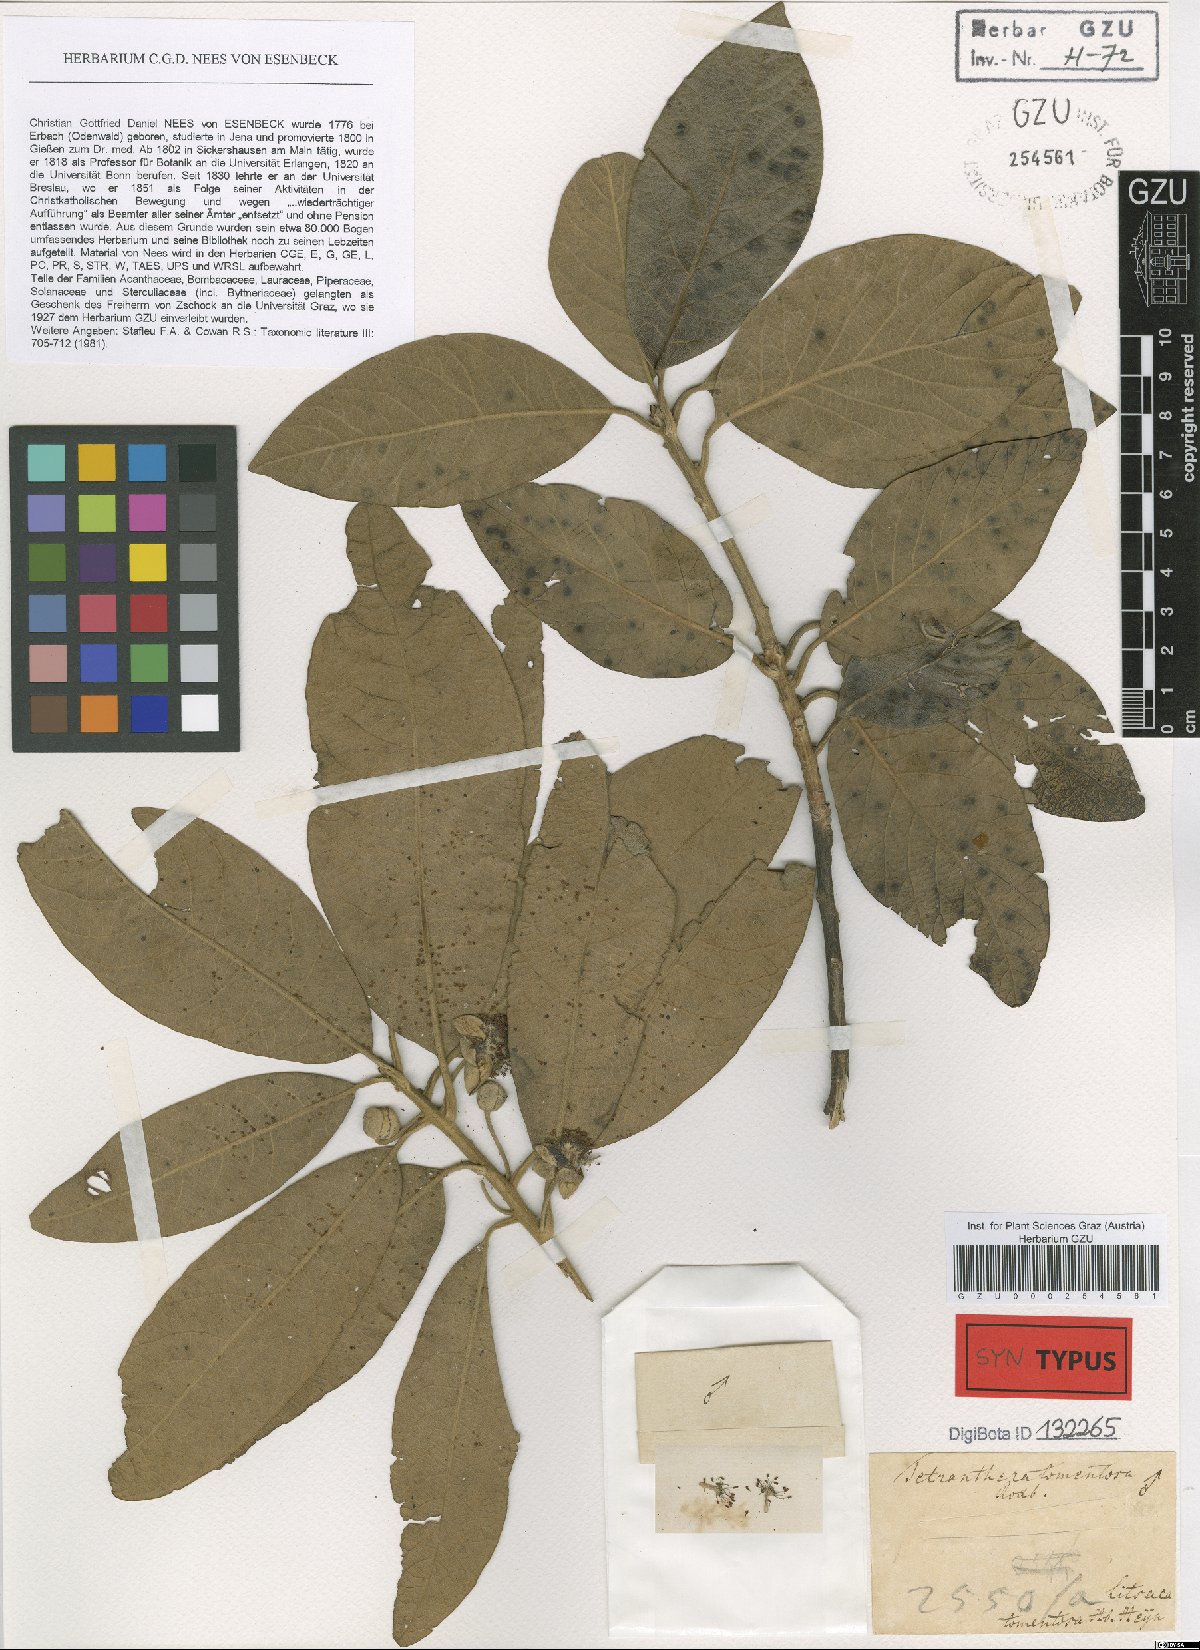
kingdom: Plantae
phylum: Tracheophyta
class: Magnoliopsida
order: Laurales
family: Lauraceae
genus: Litsea
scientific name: Litsea glutinosa
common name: Indian-laurel
